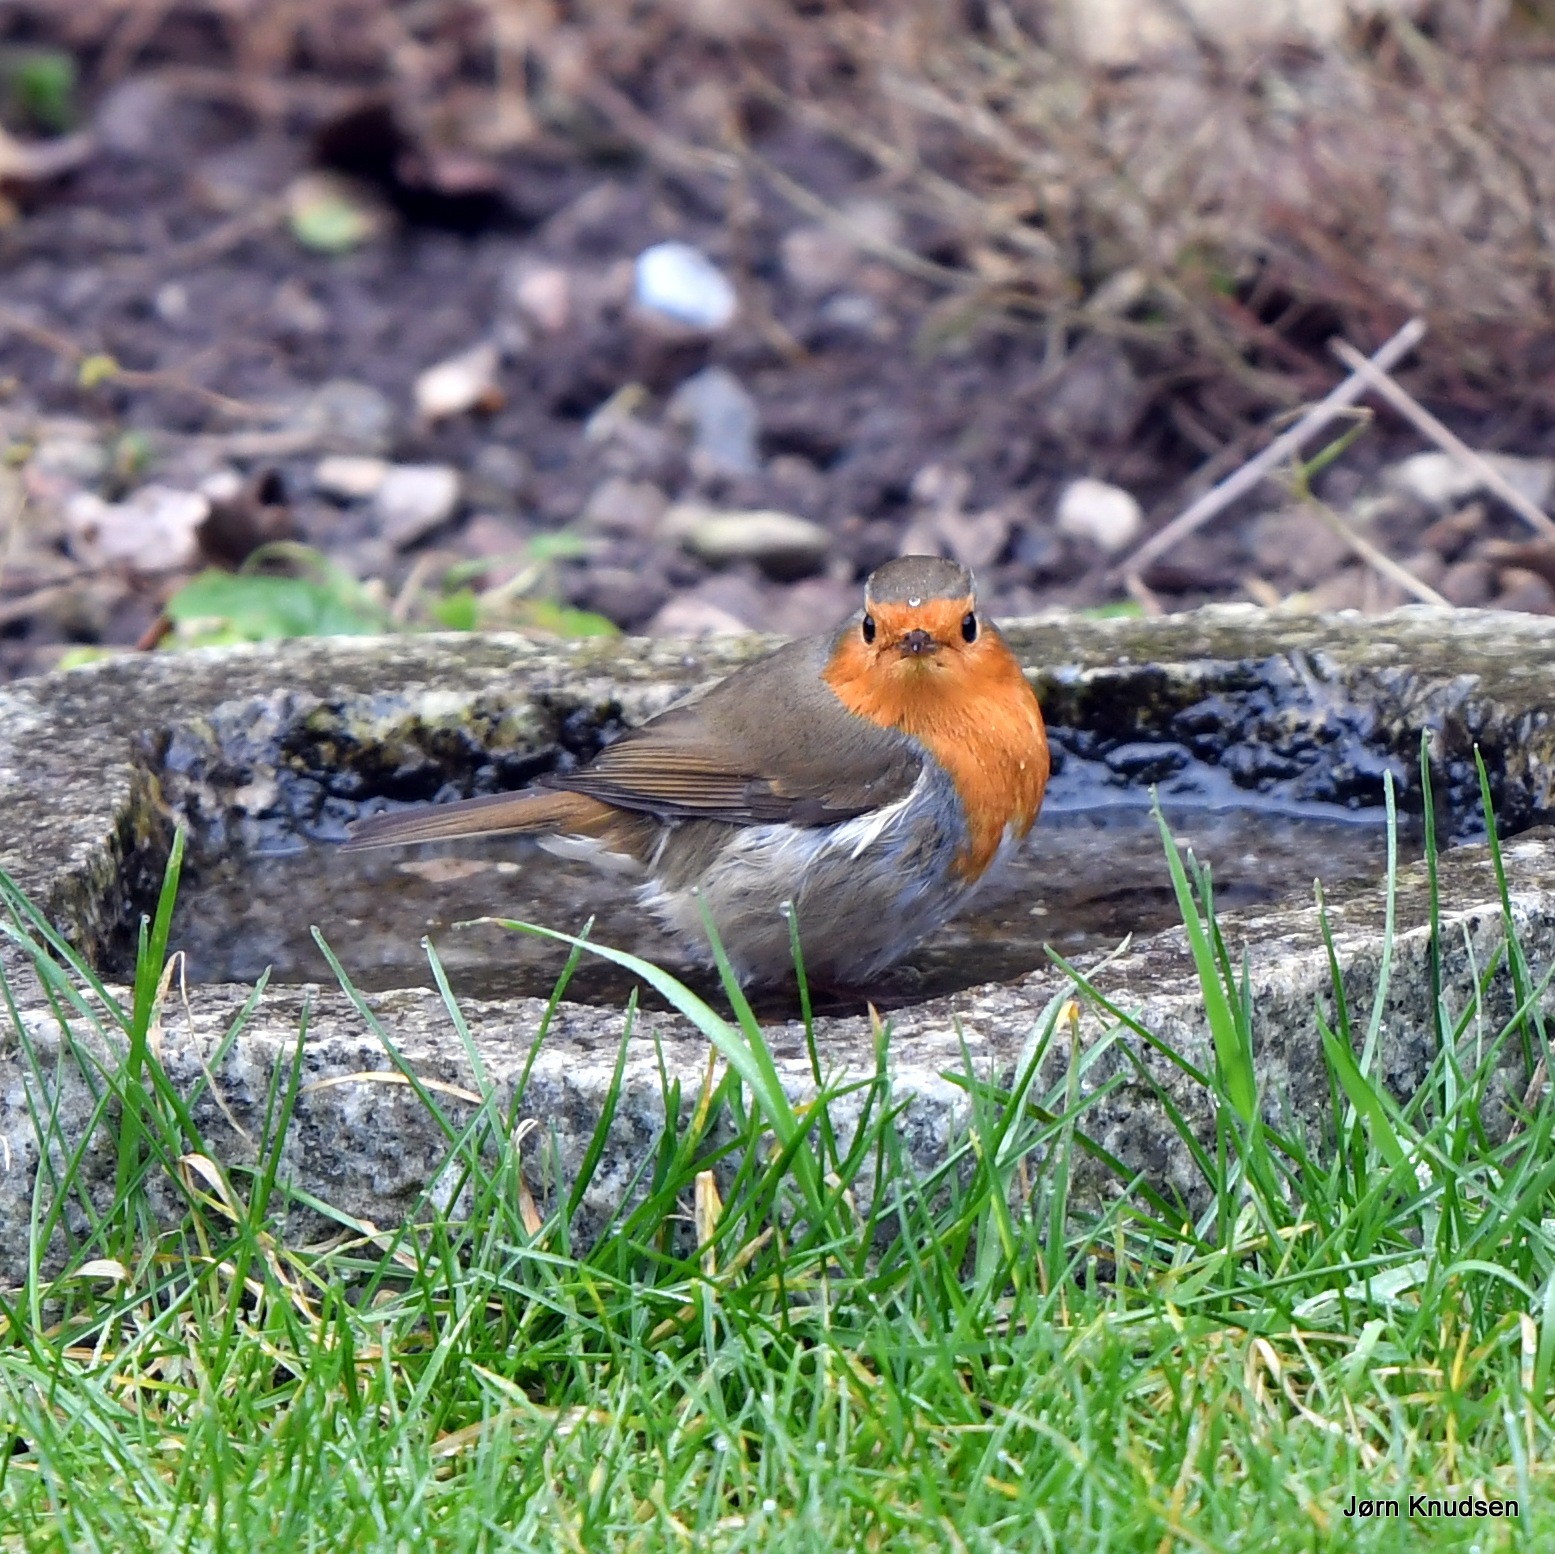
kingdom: Animalia
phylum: Chordata
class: Aves
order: Passeriformes
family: Muscicapidae
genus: Erithacus
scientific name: Erithacus rubecula
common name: Rødhals/rødkælk
